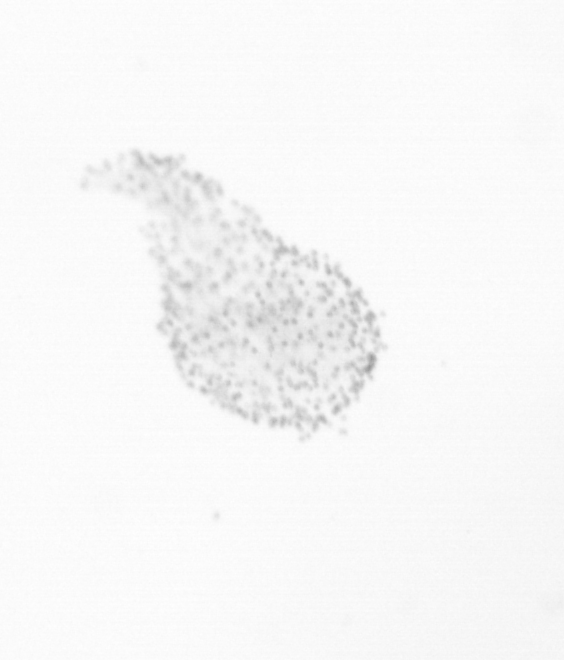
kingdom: Chromista
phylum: Ochrophyta
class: Bacillariophyceae
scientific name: Bacillariophyceae
